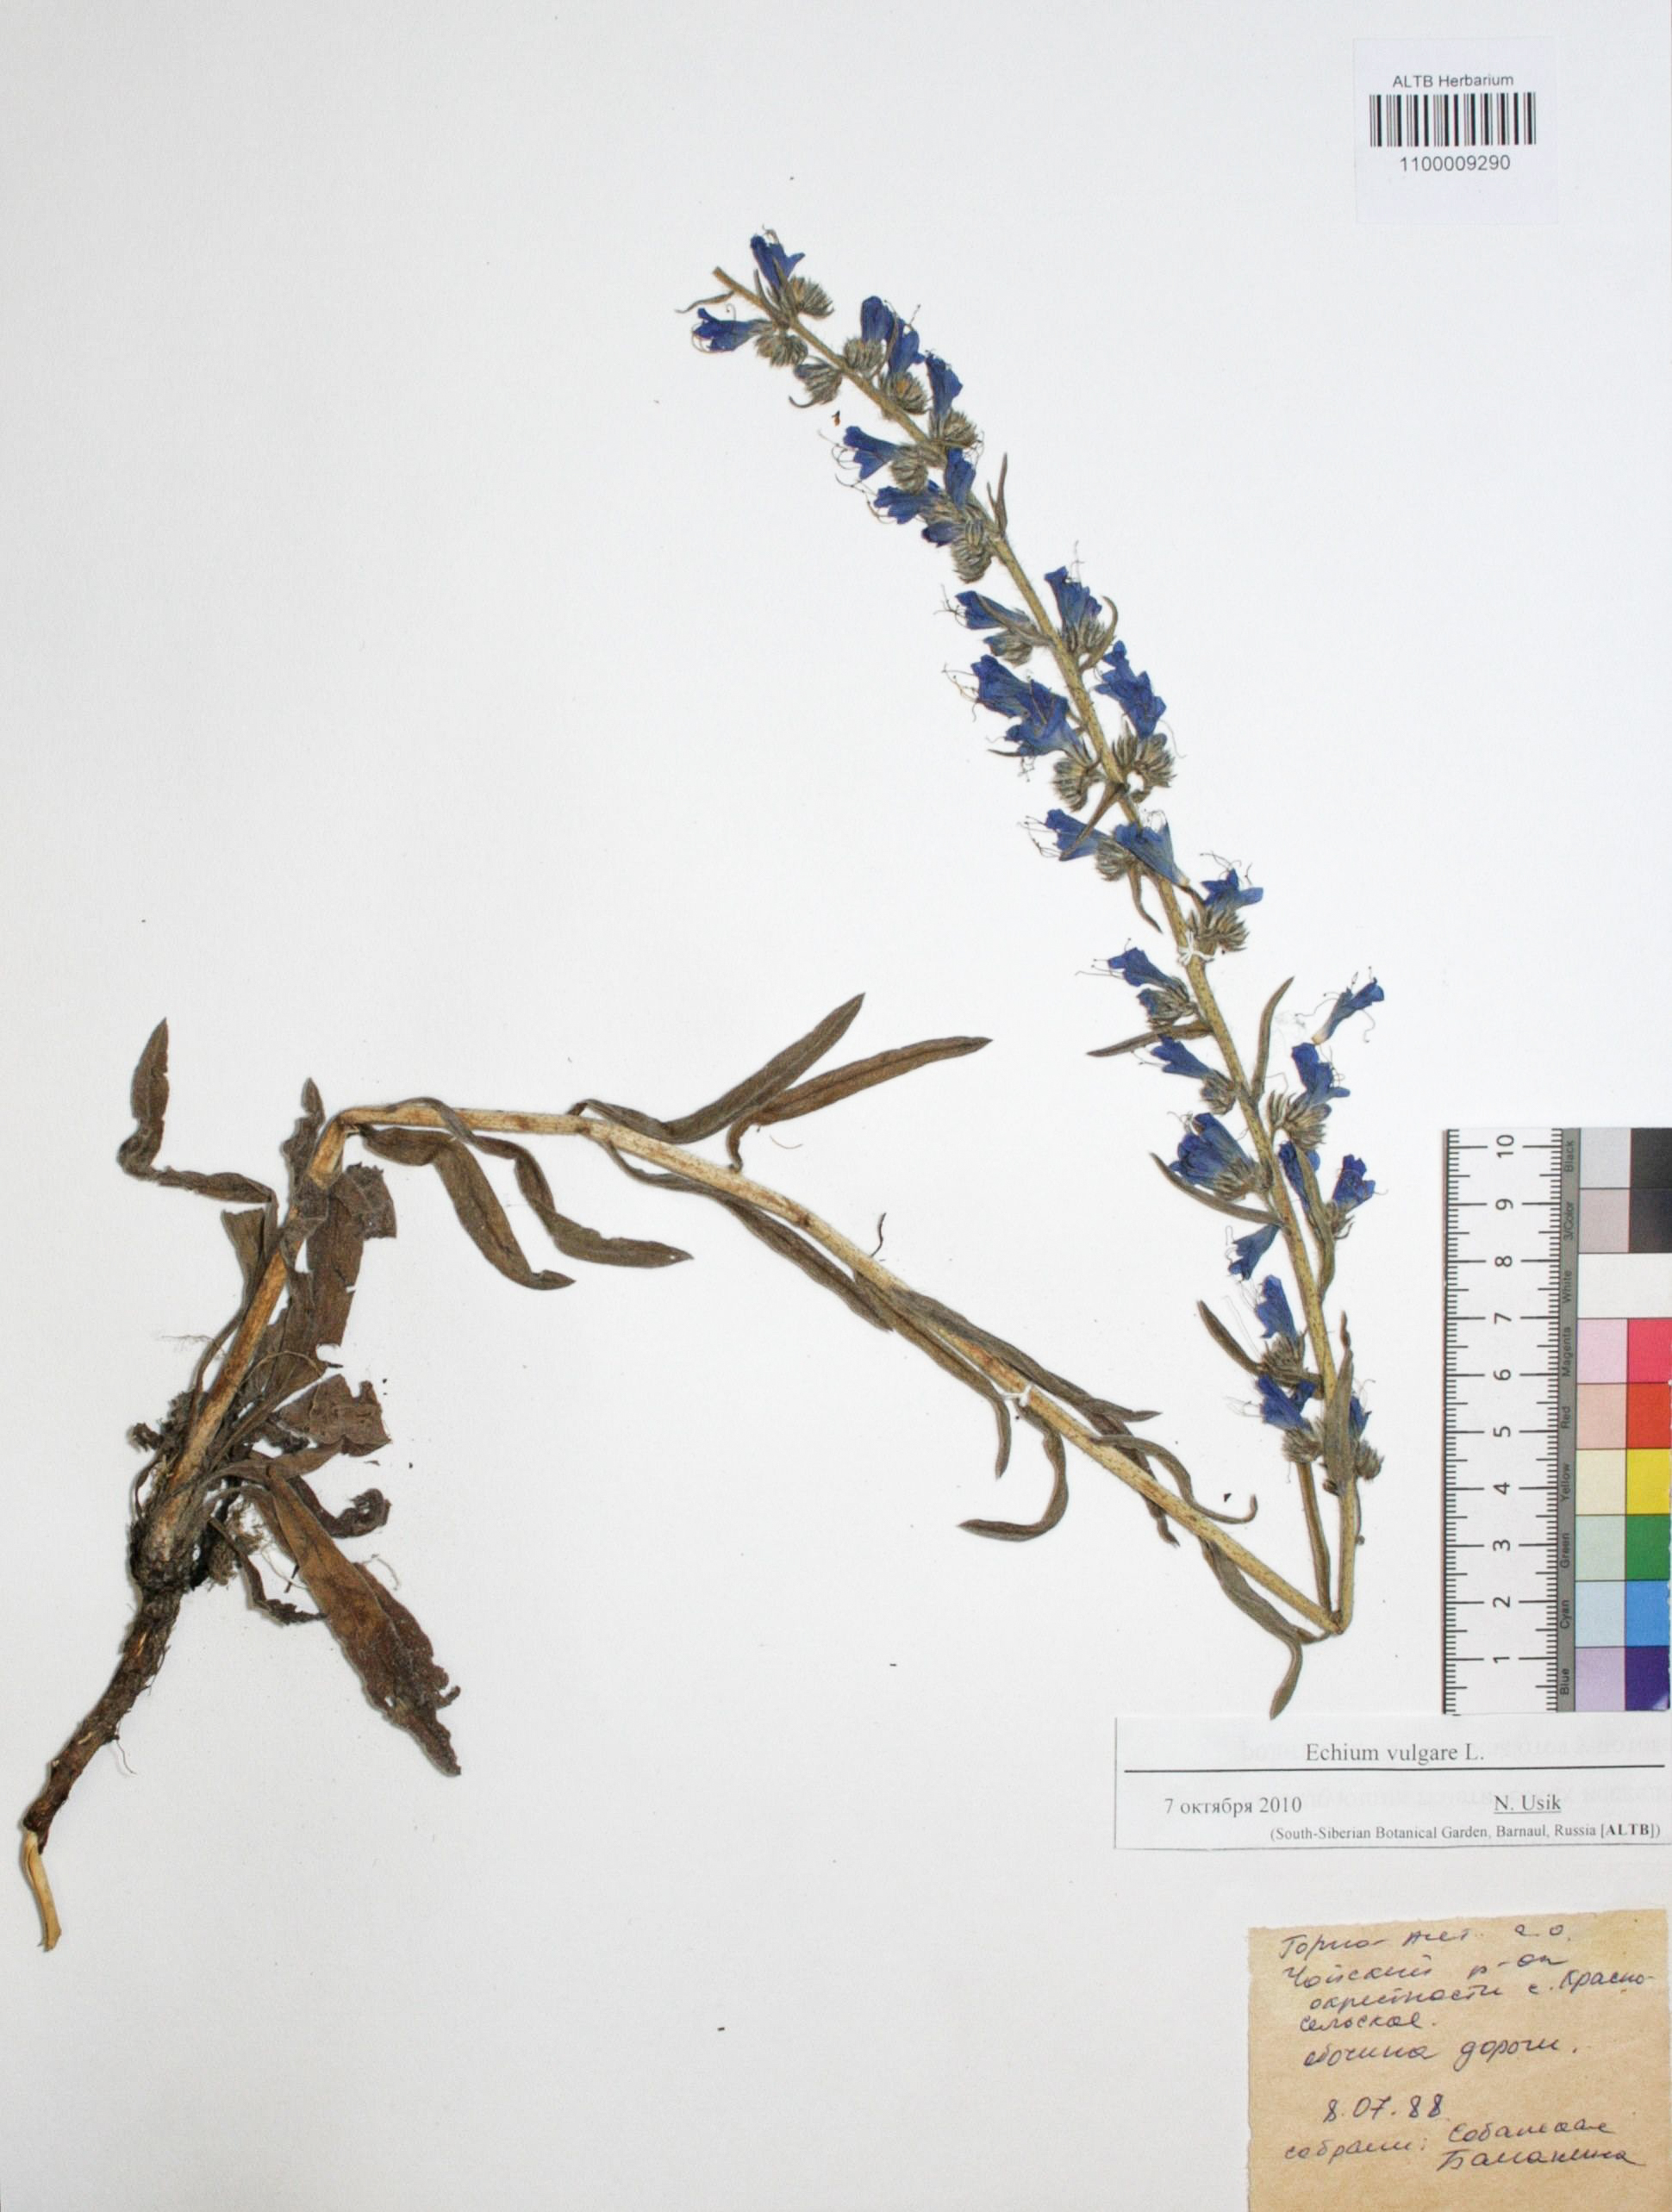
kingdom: Plantae
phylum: Tracheophyta
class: Magnoliopsida
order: Boraginales
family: Boraginaceae
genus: Echium
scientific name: Echium vulgare
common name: Common viper's bugloss
